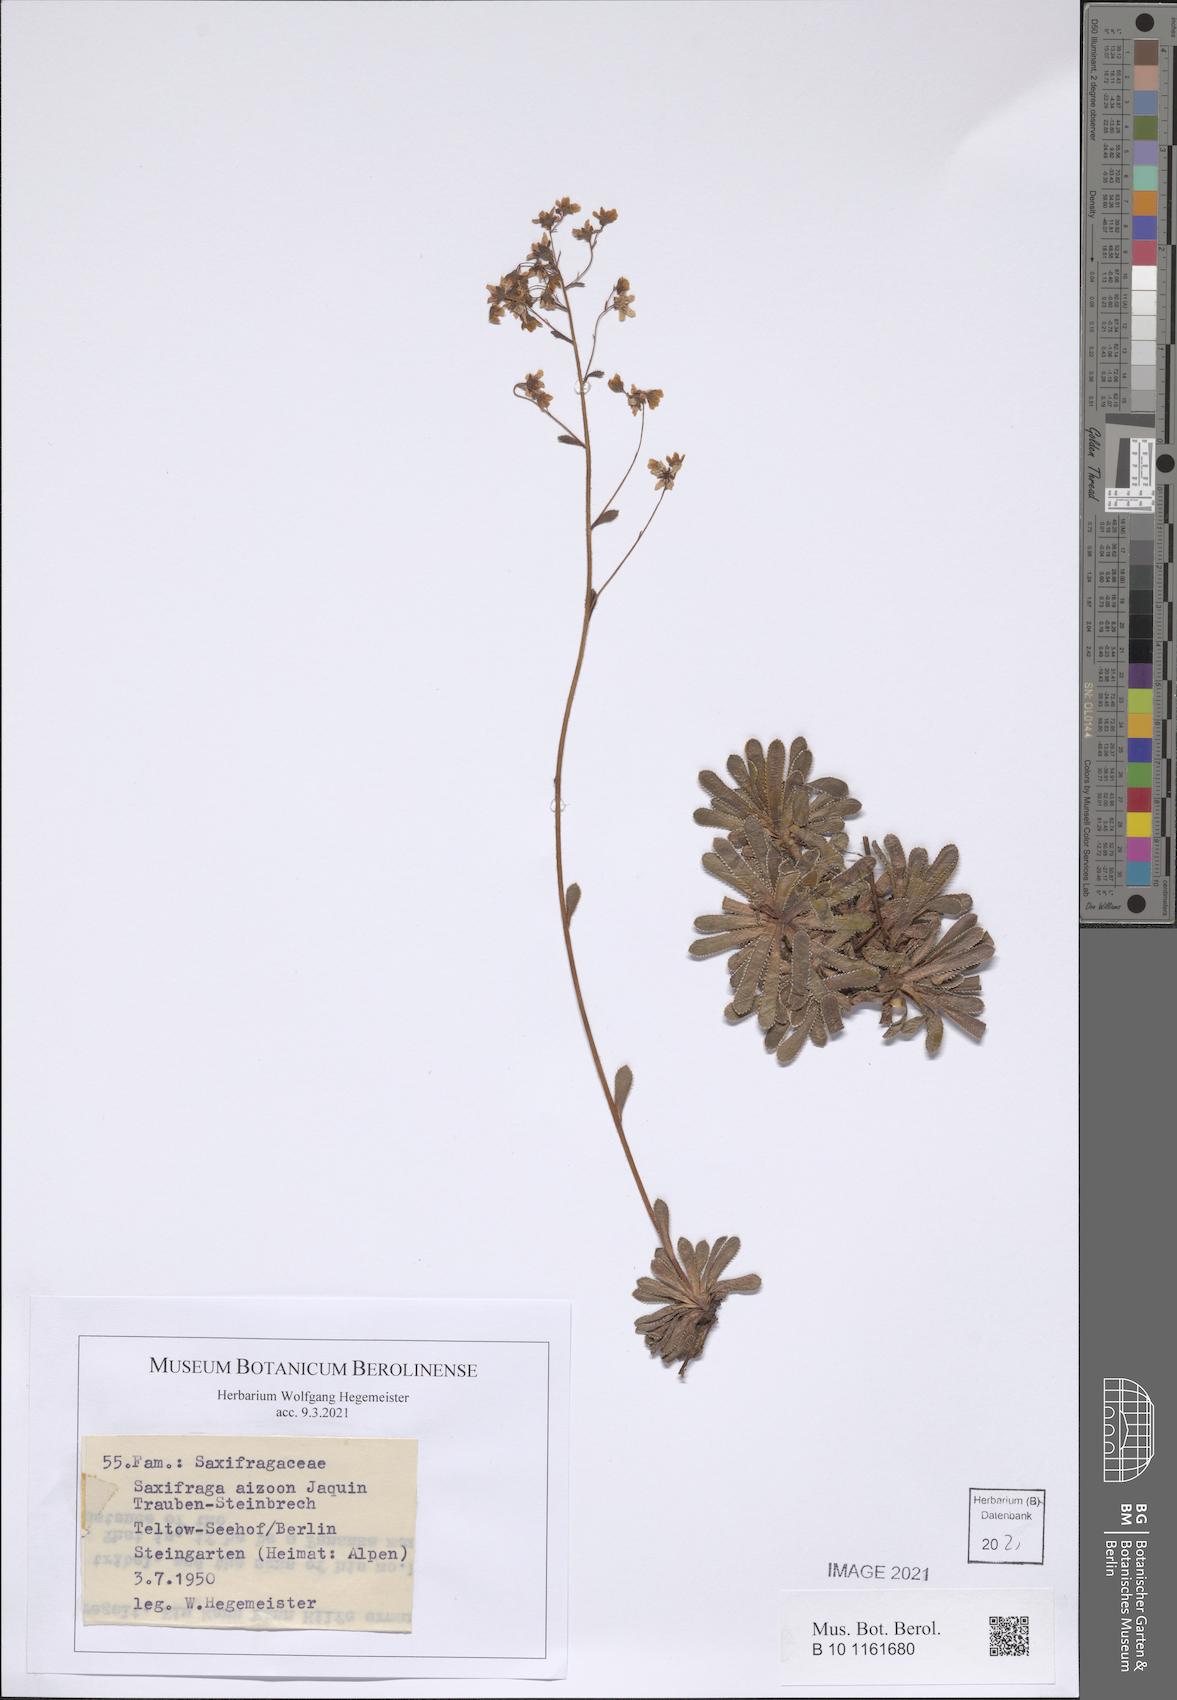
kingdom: Plantae
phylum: Tracheophyta
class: Magnoliopsida
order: Saxifragales
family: Saxifragaceae
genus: Saxifraga
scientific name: Saxifraga paniculata
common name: Livelong saxifrage
